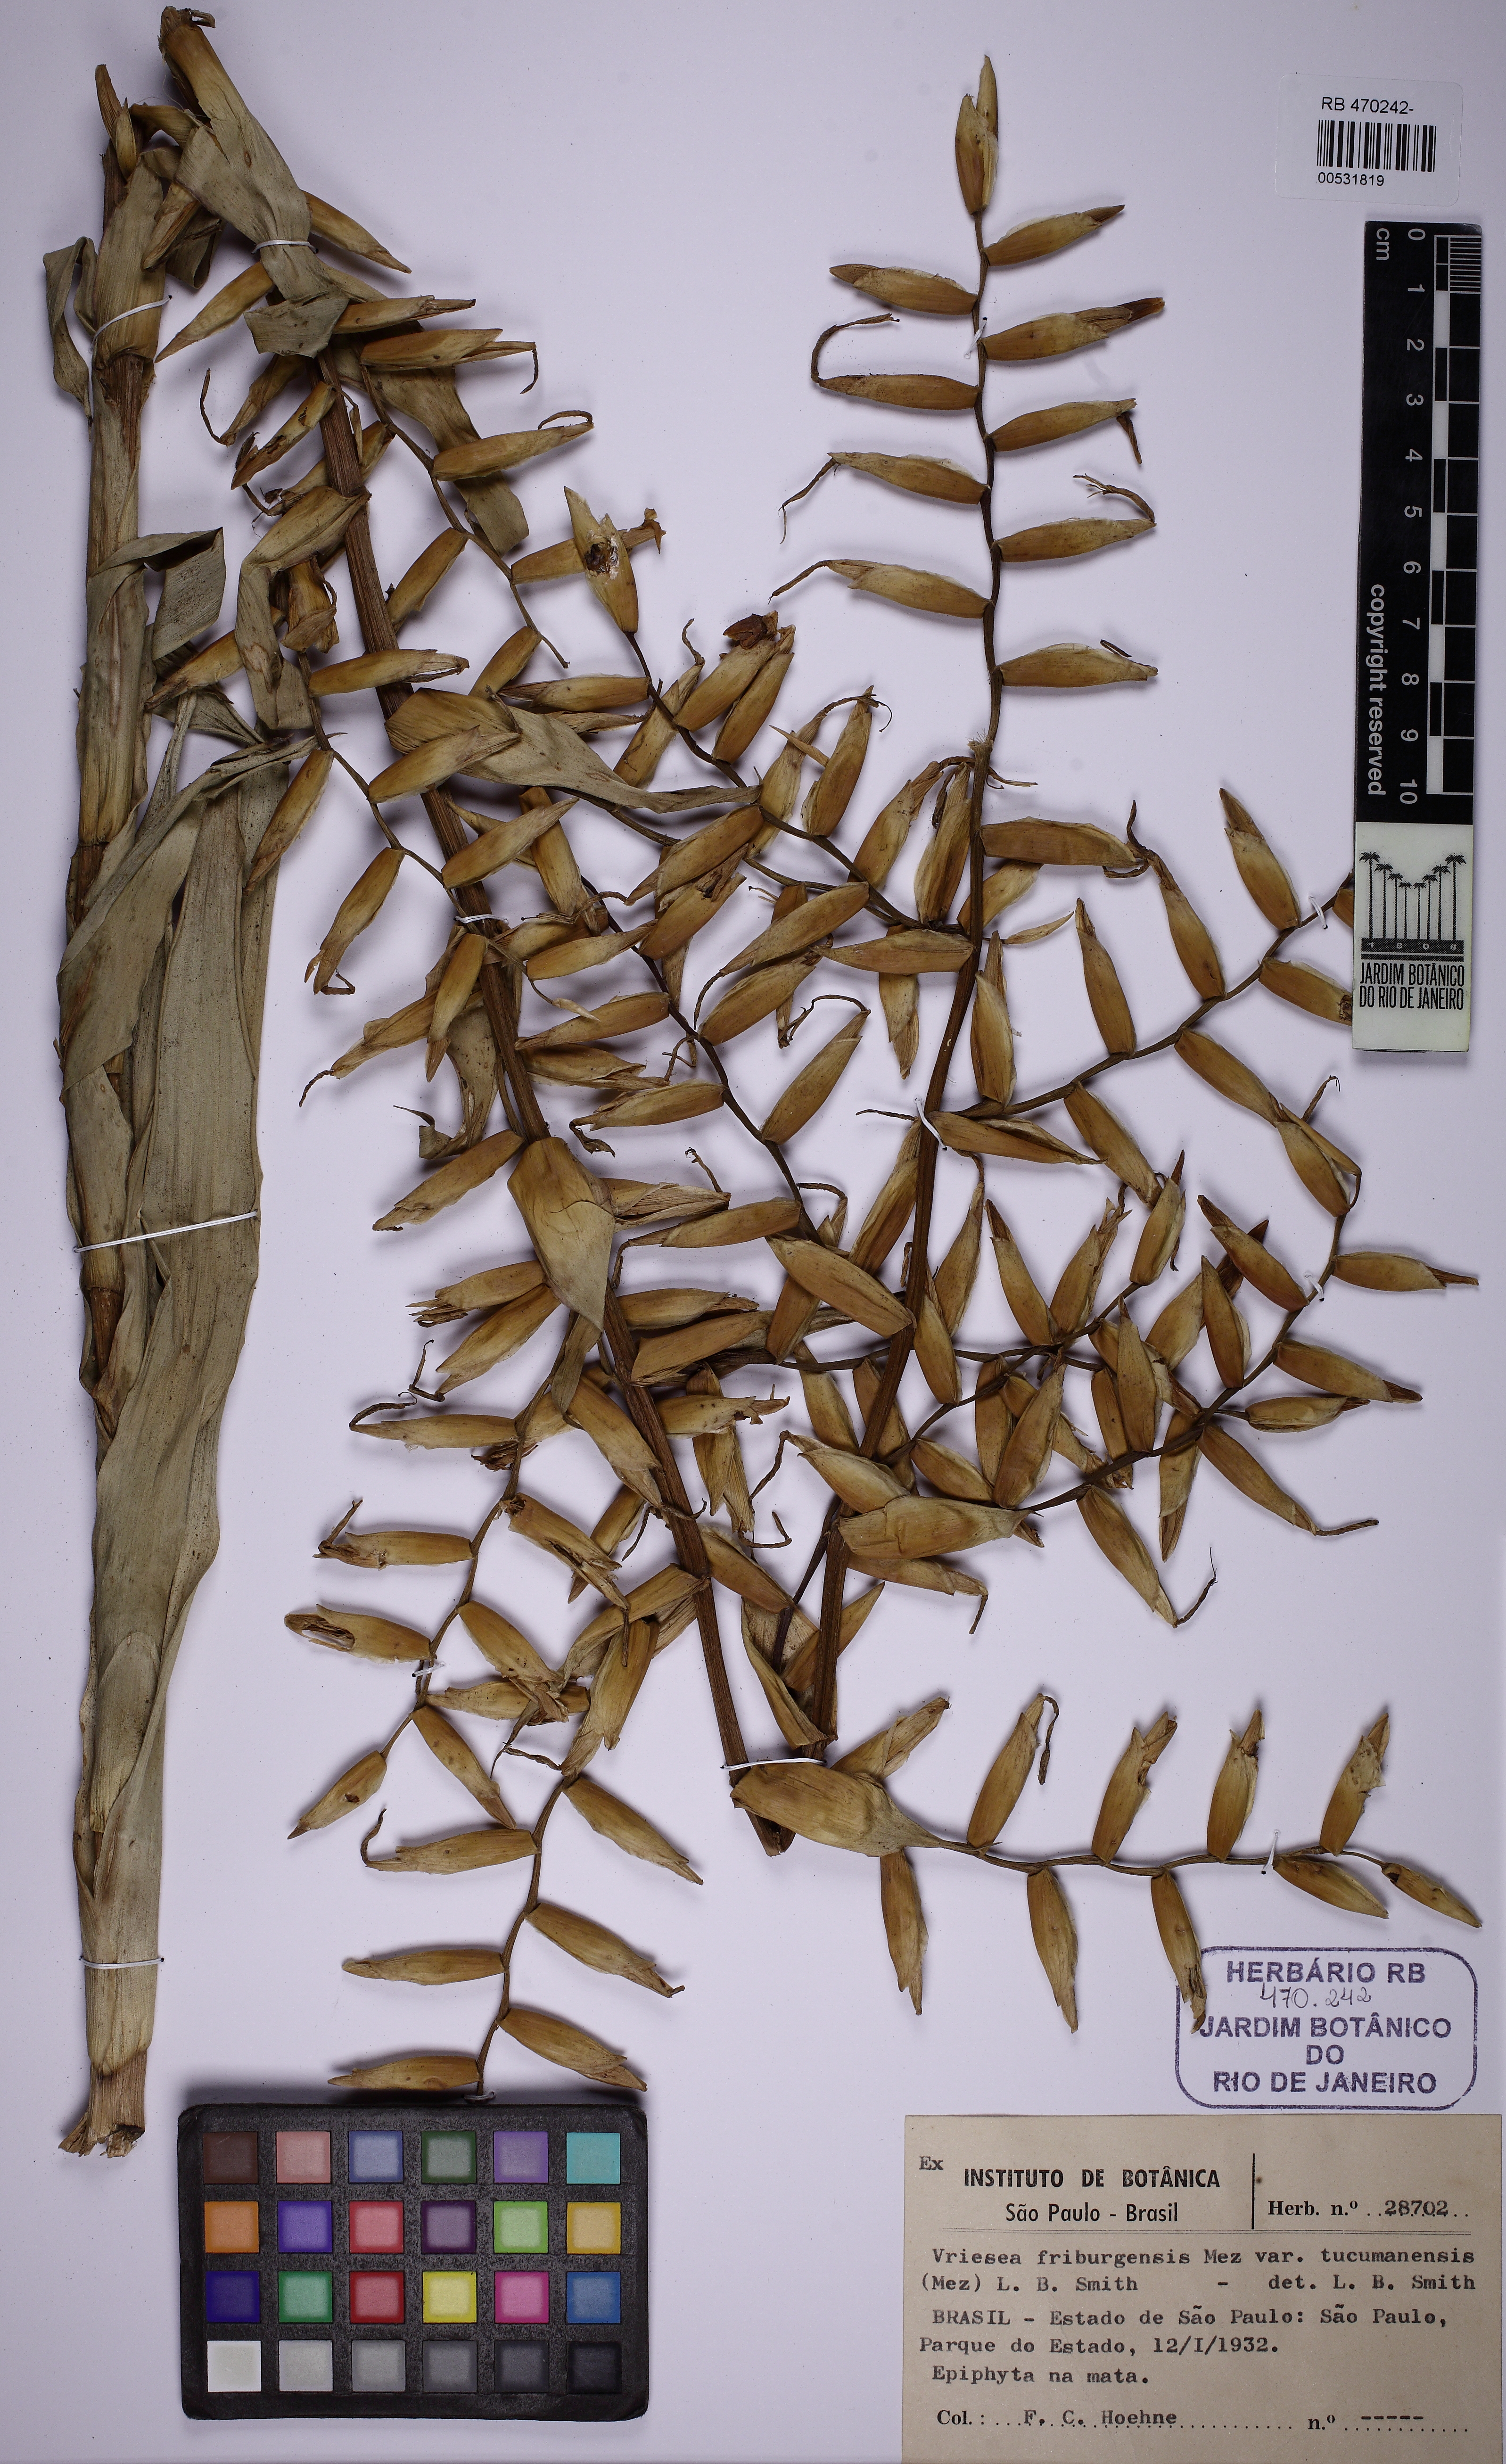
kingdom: Plantae
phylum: Tracheophyta
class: Liliopsida
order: Poales
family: Bromeliaceae
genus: Vriesea
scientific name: Vriesea friburgensis
